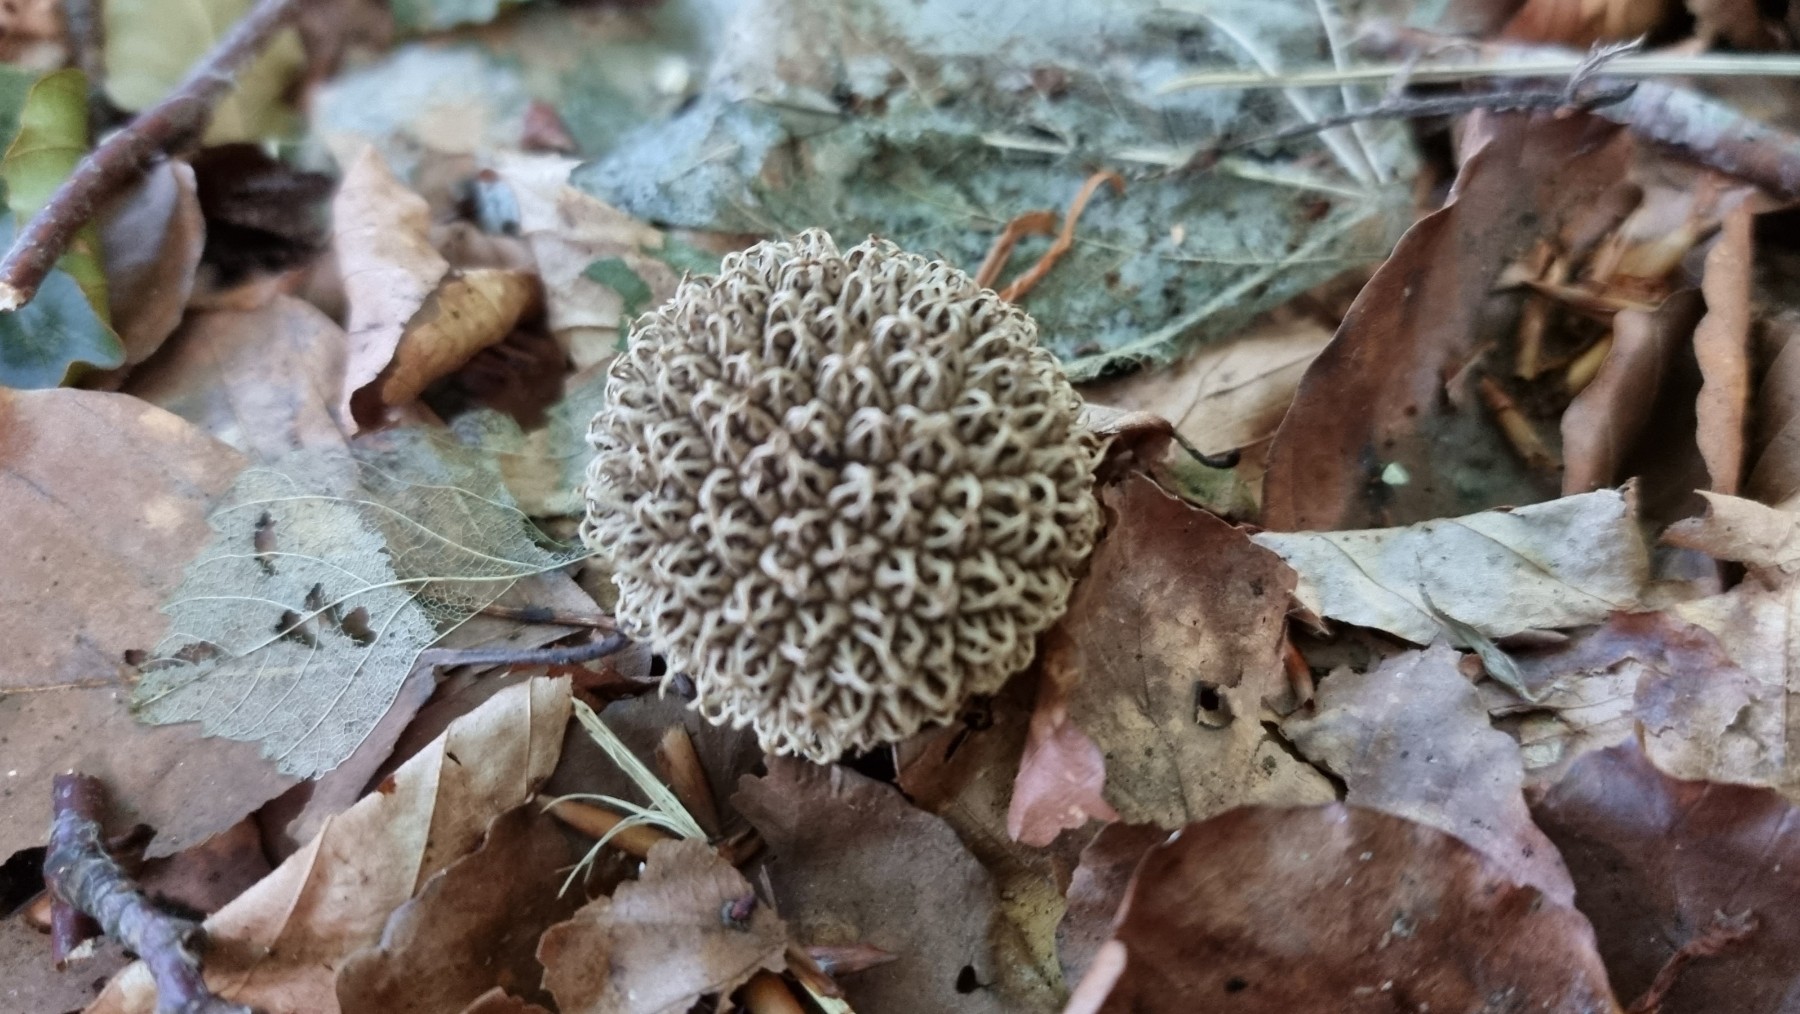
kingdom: Fungi
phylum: Basidiomycota
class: Agaricomycetes
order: Agaricales
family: Lycoperdaceae
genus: Lycoperdon
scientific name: Lycoperdon echinatum
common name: pindsvine-støvbold
